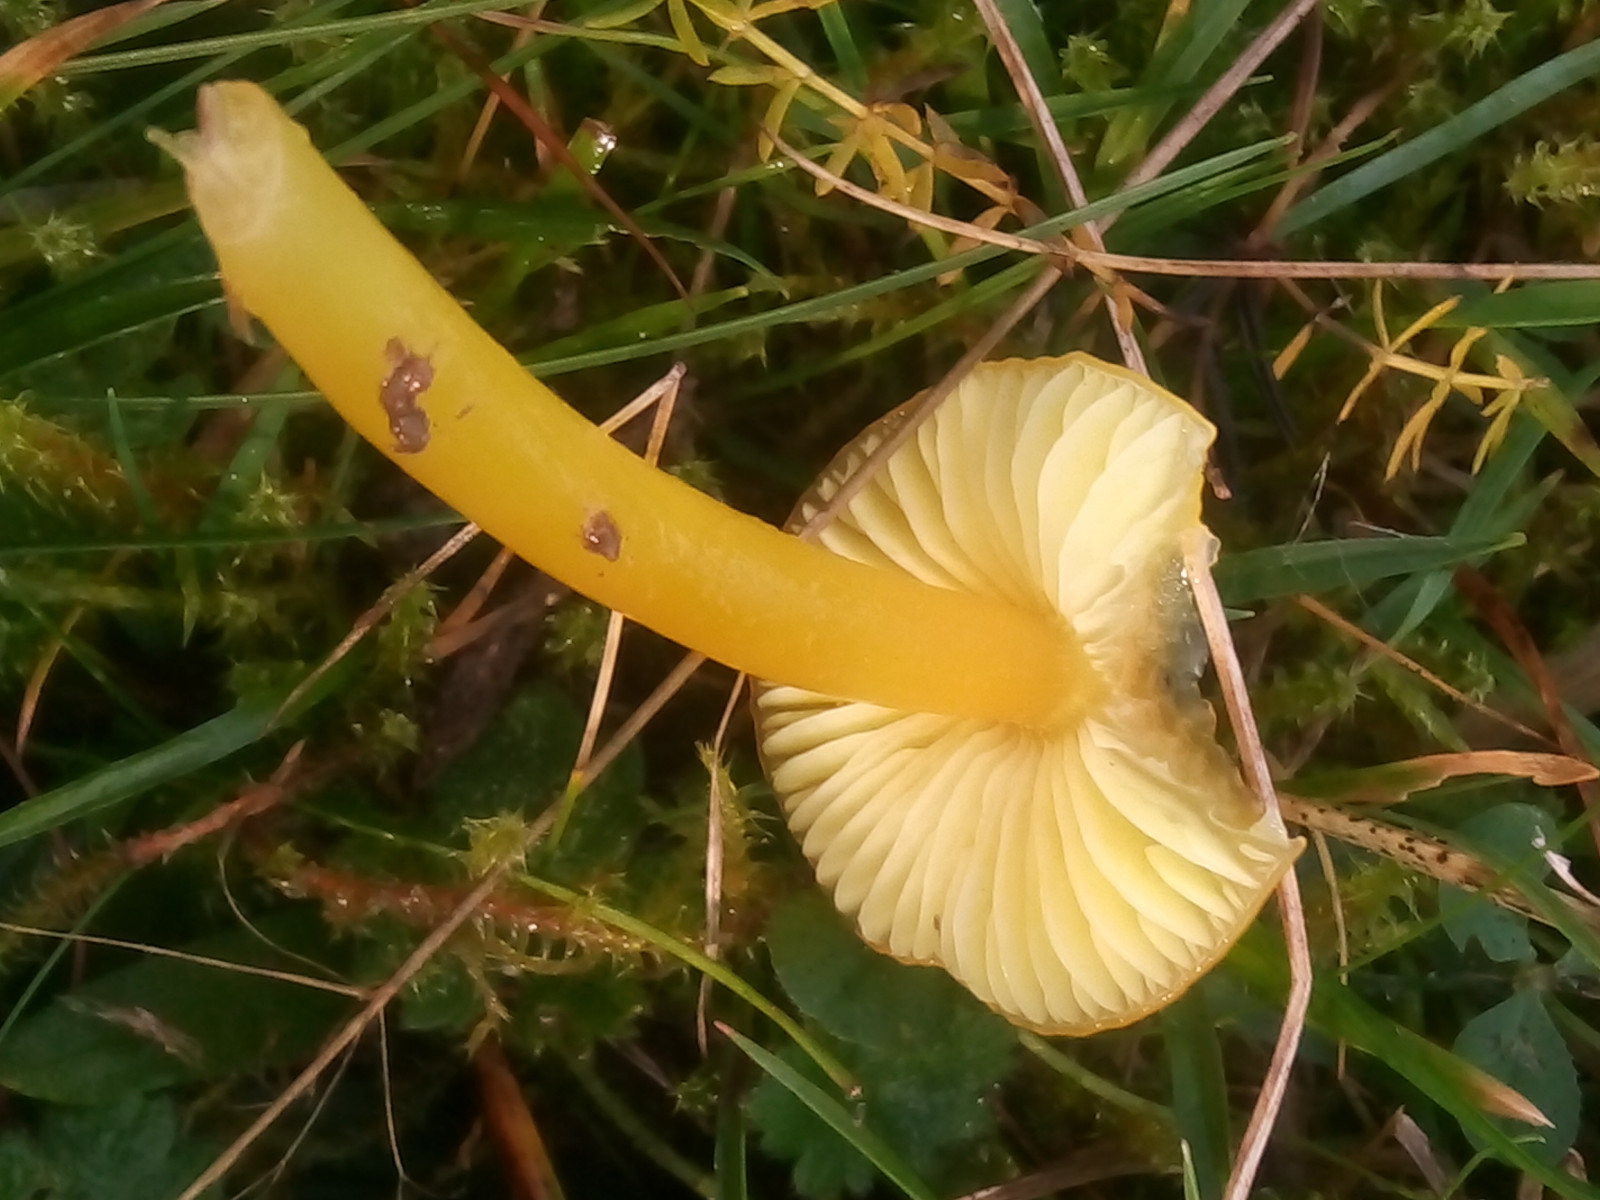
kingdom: Fungi
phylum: Basidiomycota
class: Agaricomycetes
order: Agaricales
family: Hygrophoraceae
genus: Hygrocybe
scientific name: Hygrocybe chlorophana
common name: gul vokshat
